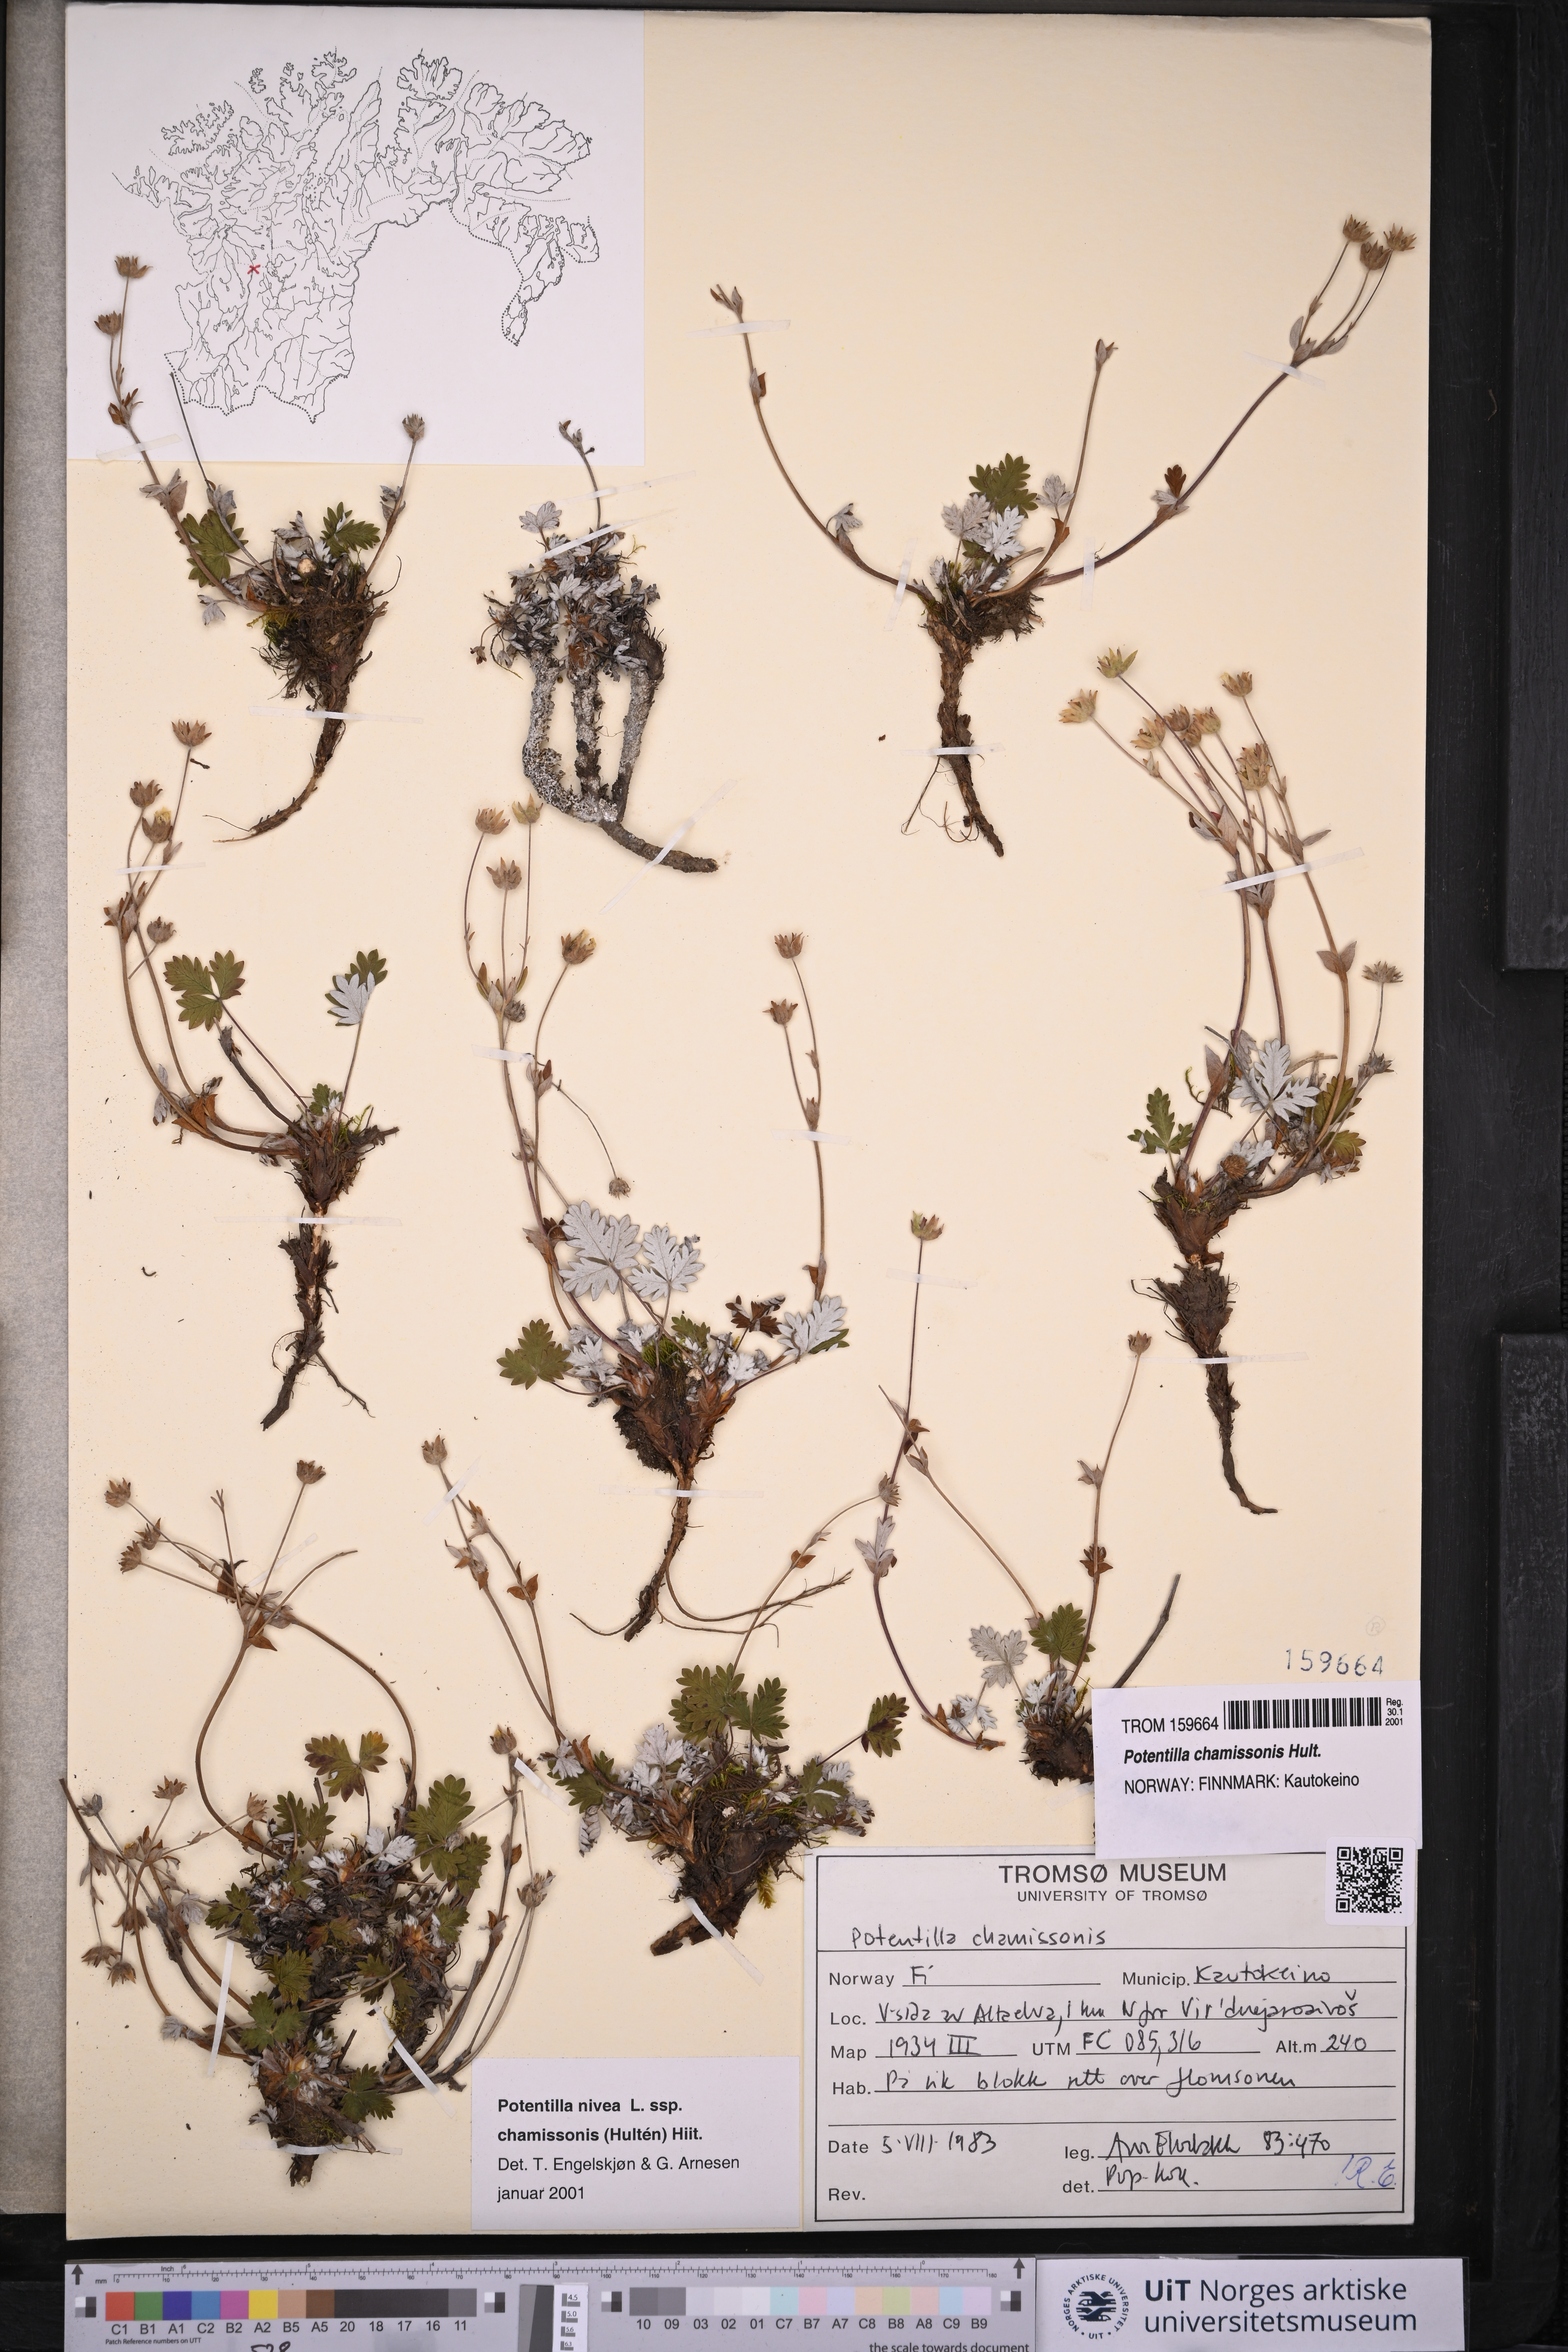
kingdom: Plantae
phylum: Tracheophyta
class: Magnoliopsida
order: Rosales
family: Rosaceae
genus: Potentilla
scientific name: Potentilla chamissonis
